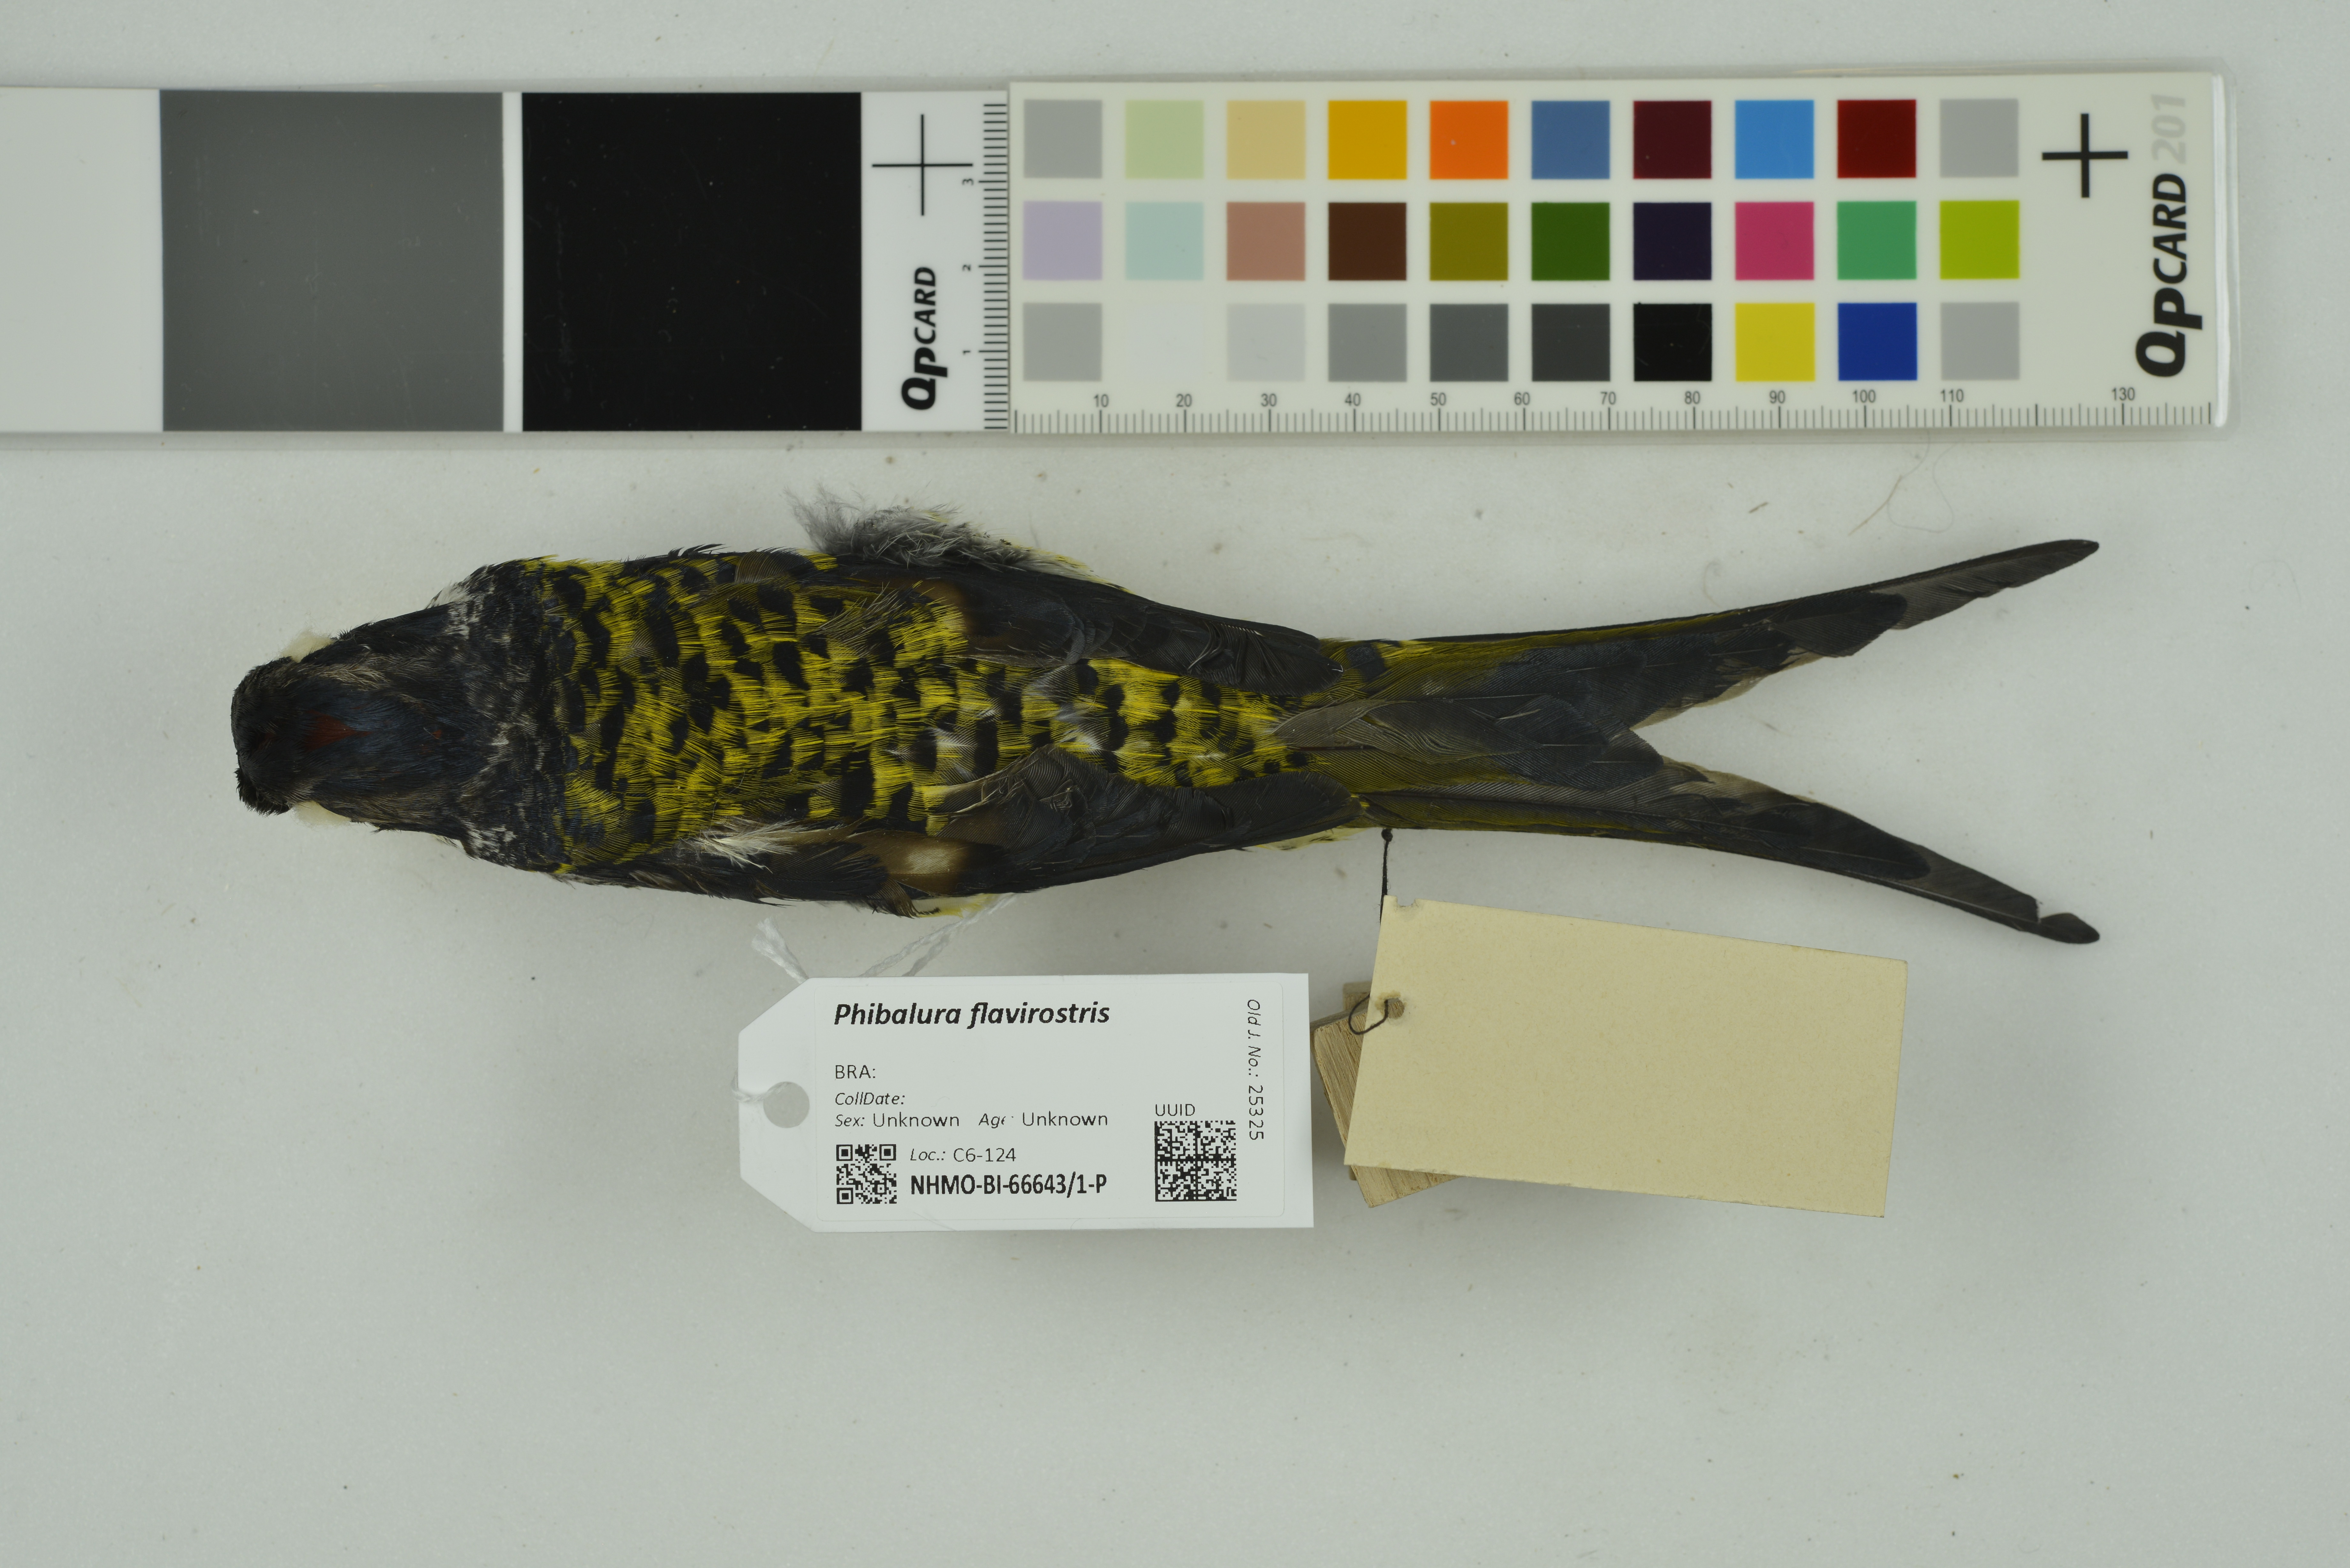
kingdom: Animalia
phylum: Chordata
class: Aves
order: Passeriformes
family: Cotingidae
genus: Phibalura
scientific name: Phibalura flavirostris
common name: Swallow-tailed cotinga
